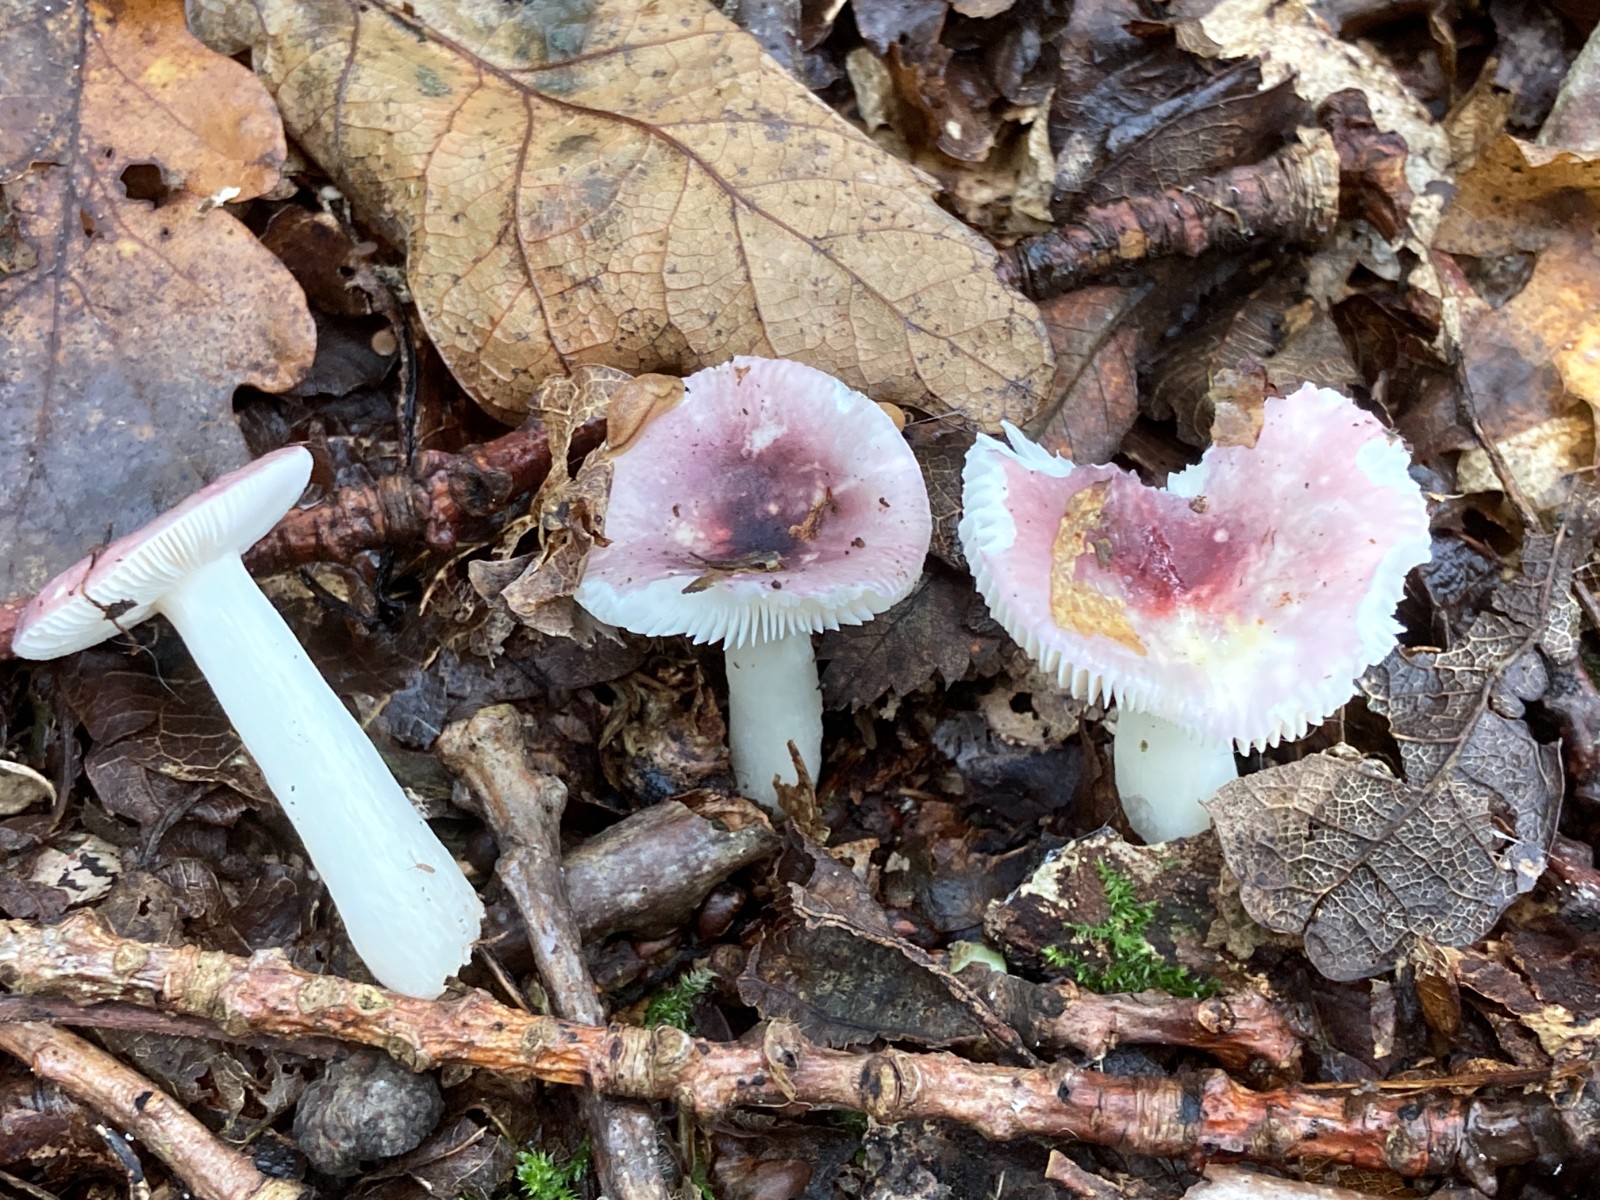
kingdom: Fungi
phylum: Basidiomycota
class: Agaricomycetes
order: Russulales
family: Russulaceae
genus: Russula
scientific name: Russula fragilis
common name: savbladet skørhat
